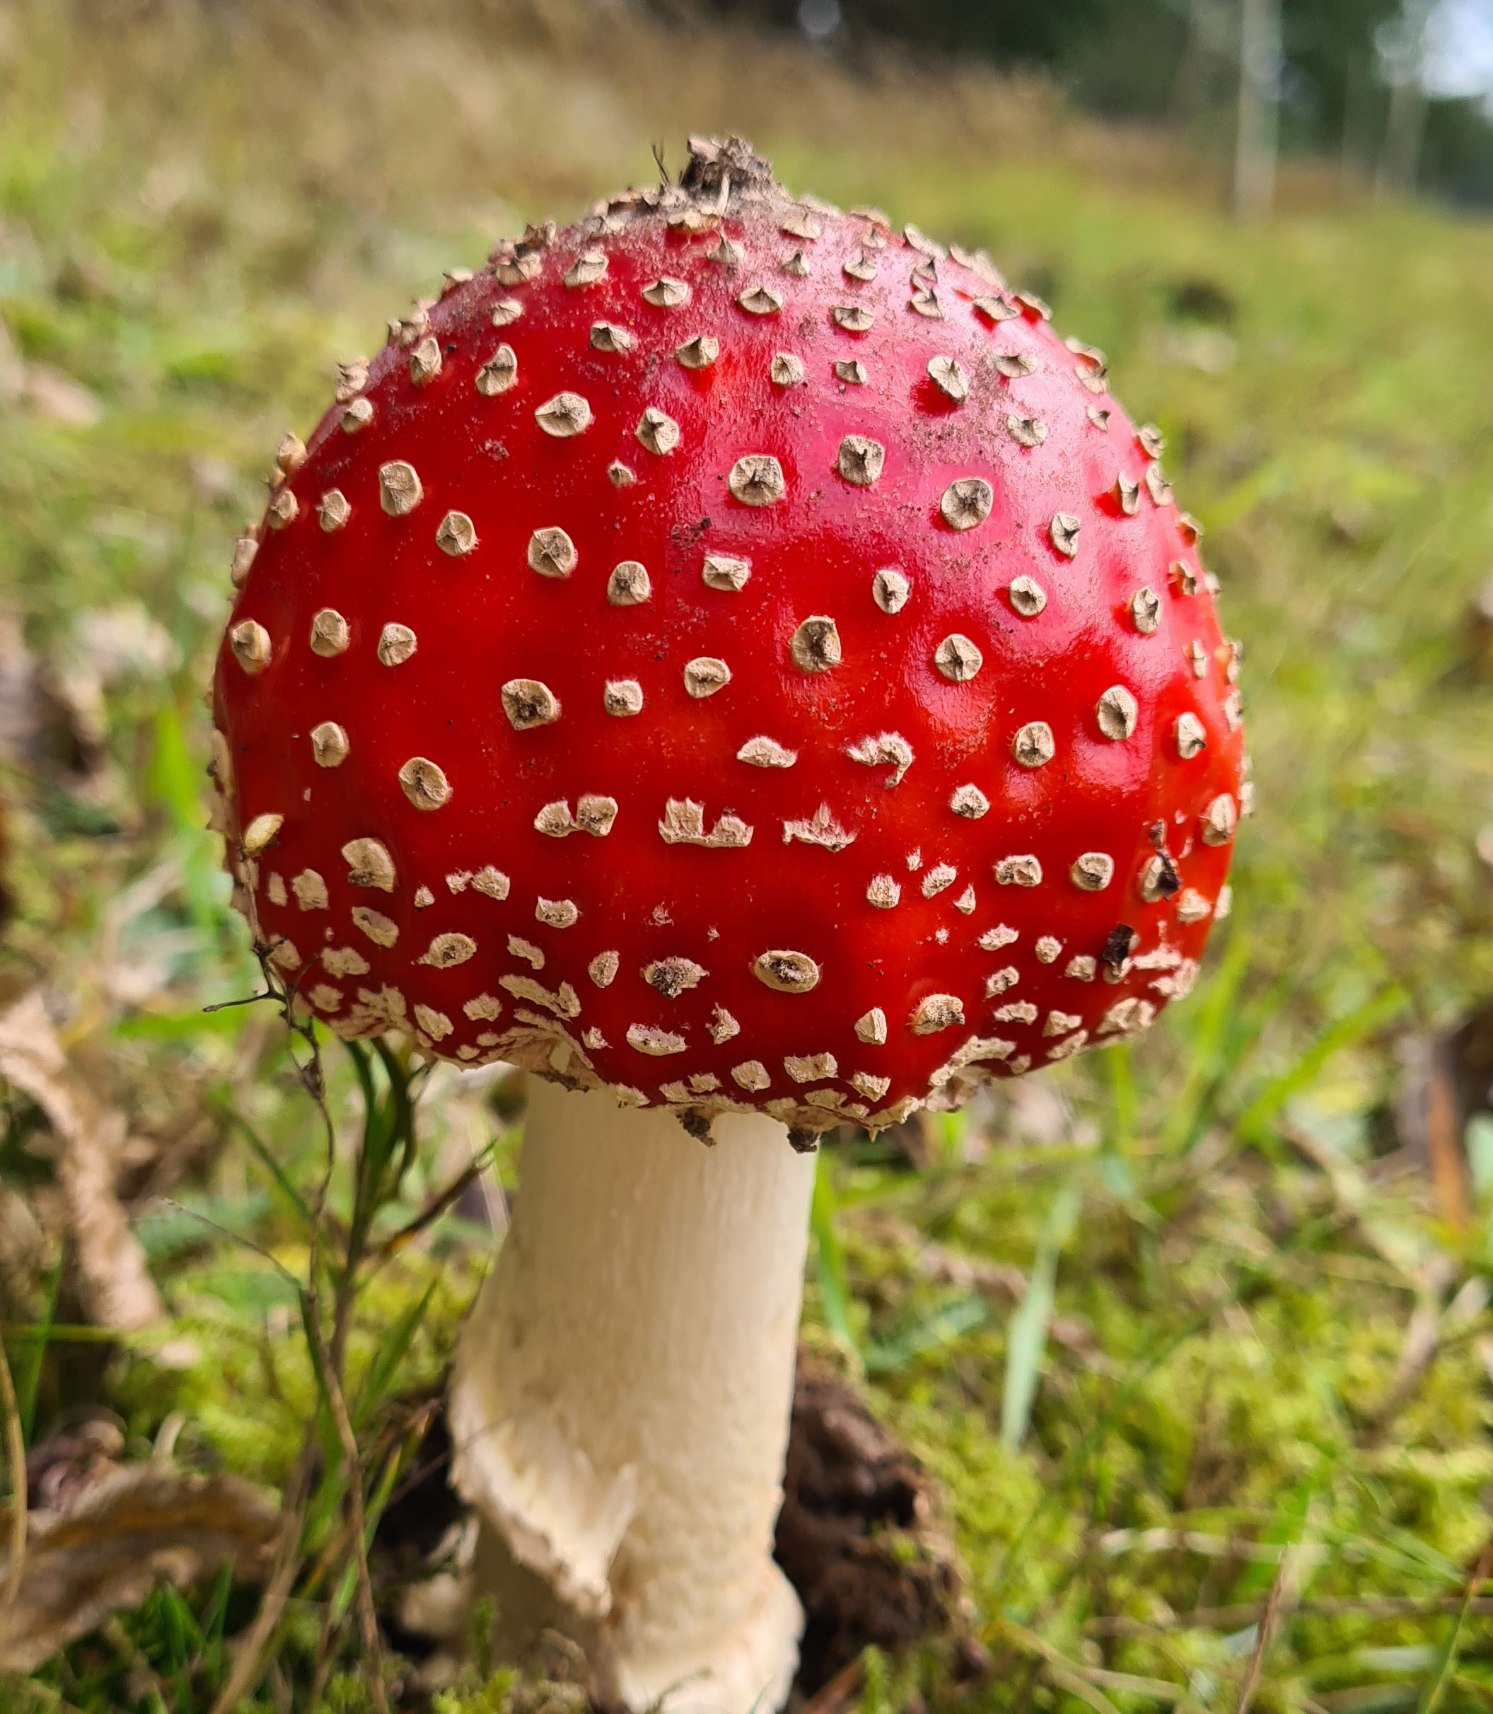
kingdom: Fungi
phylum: Basidiomycota
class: Agaricomycetes
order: Agaricales
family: Amanitaceae
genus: Amanita
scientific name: Amanita muscaria
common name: Rød fluesvamp
